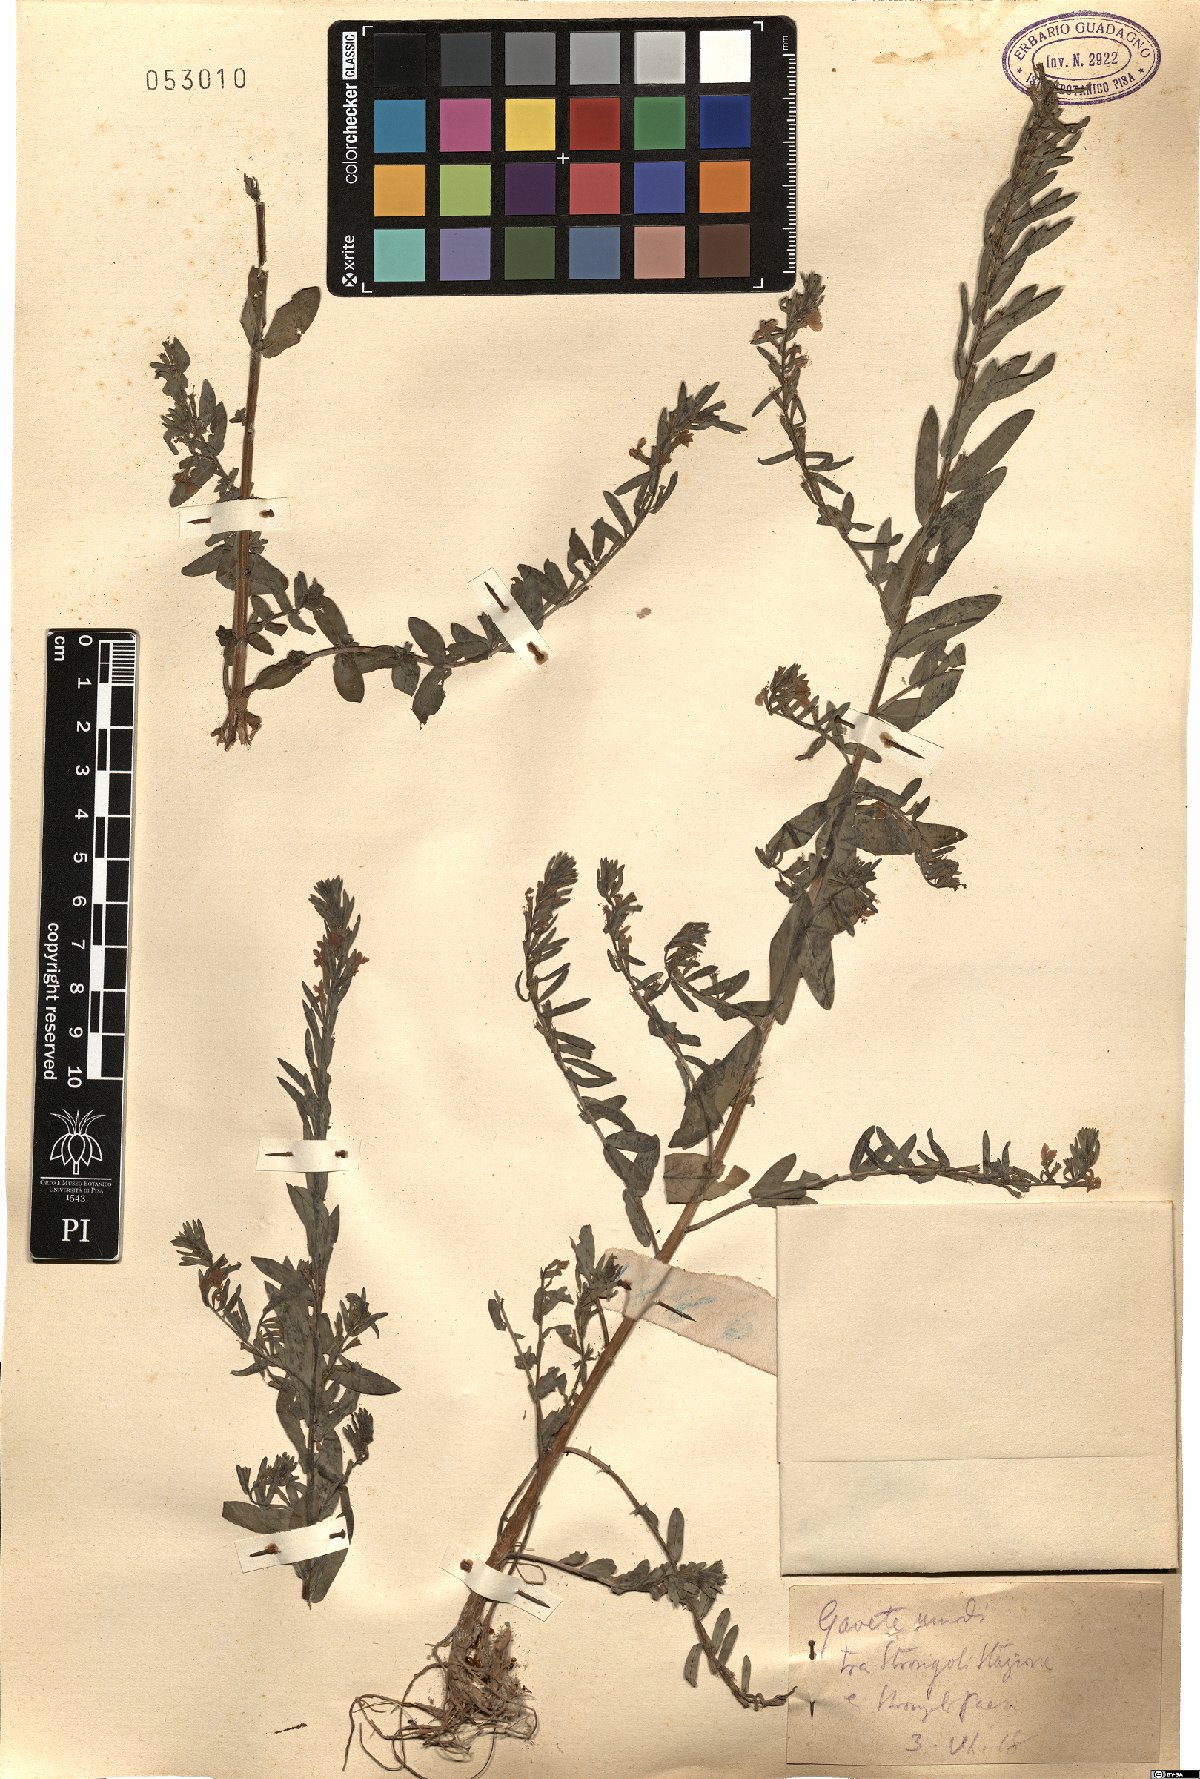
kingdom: Plantae
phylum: Tracheophyta
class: Magnoliopsida
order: Myrtales
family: Lythraceae
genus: Lythrum
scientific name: Lythrum
